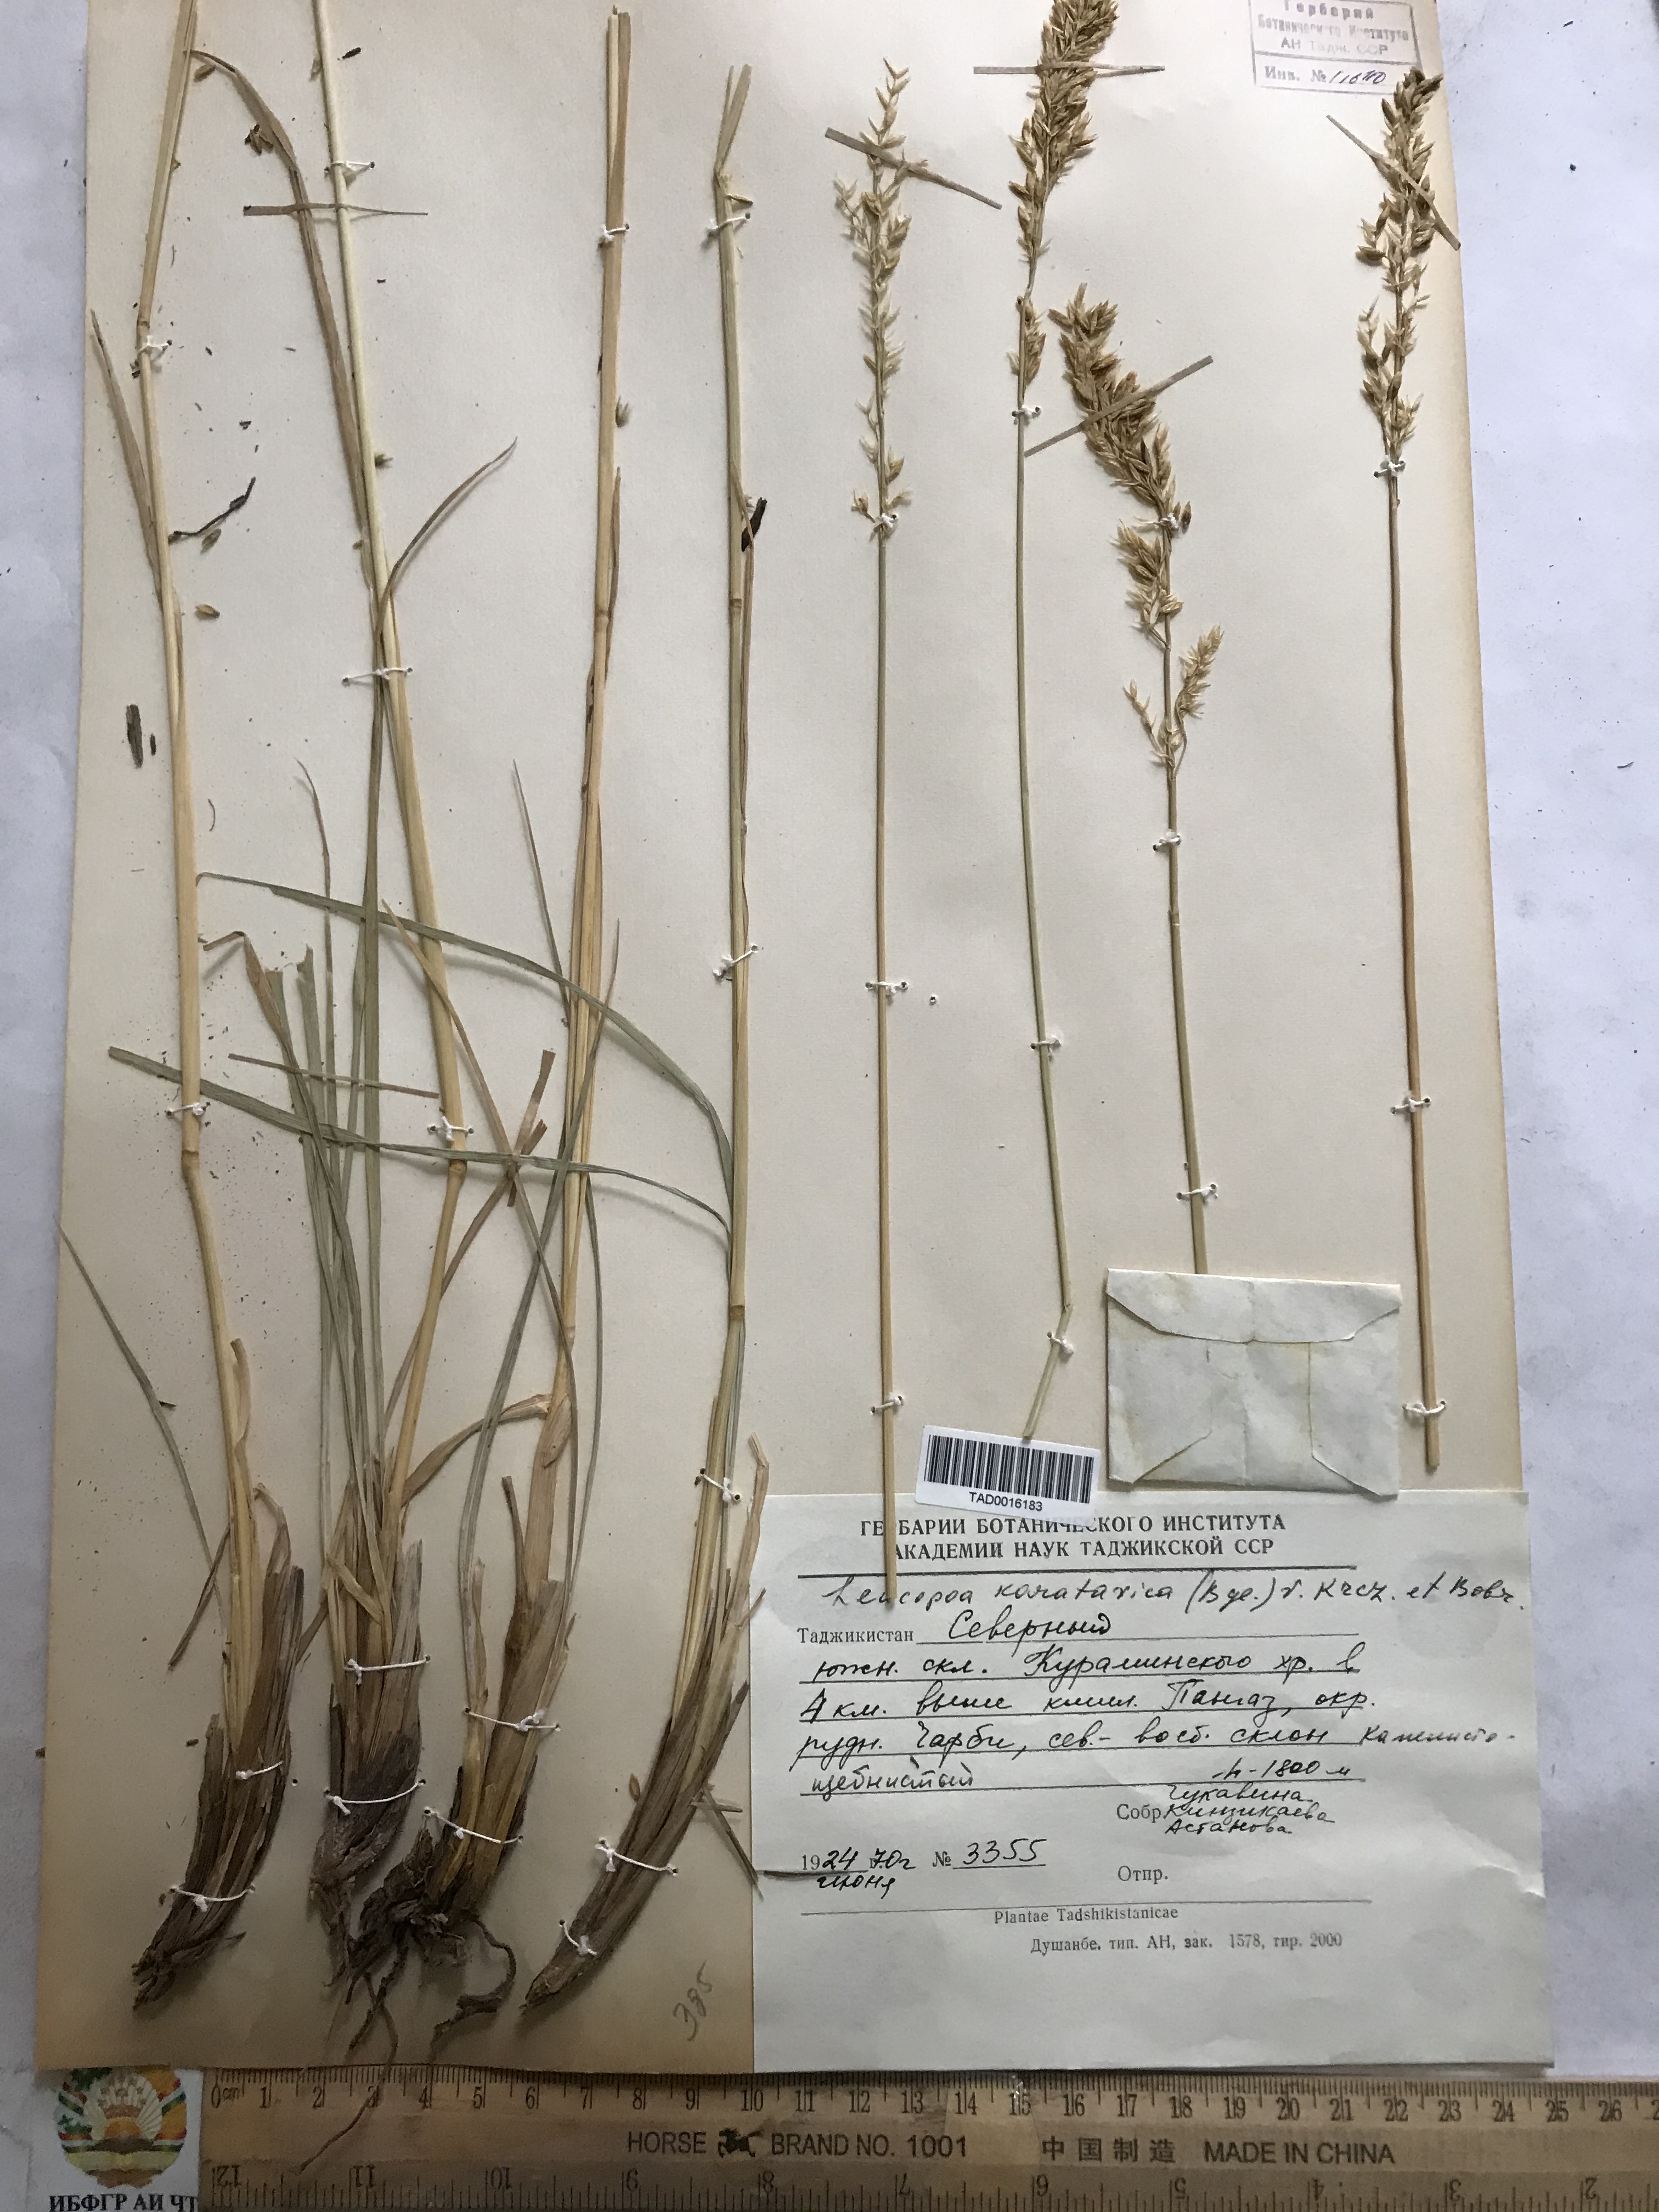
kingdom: Plantae
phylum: Tracheophyta
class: Liliopsida
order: Poales
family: Poaceae
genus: Festuca
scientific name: Festuca karatavica
